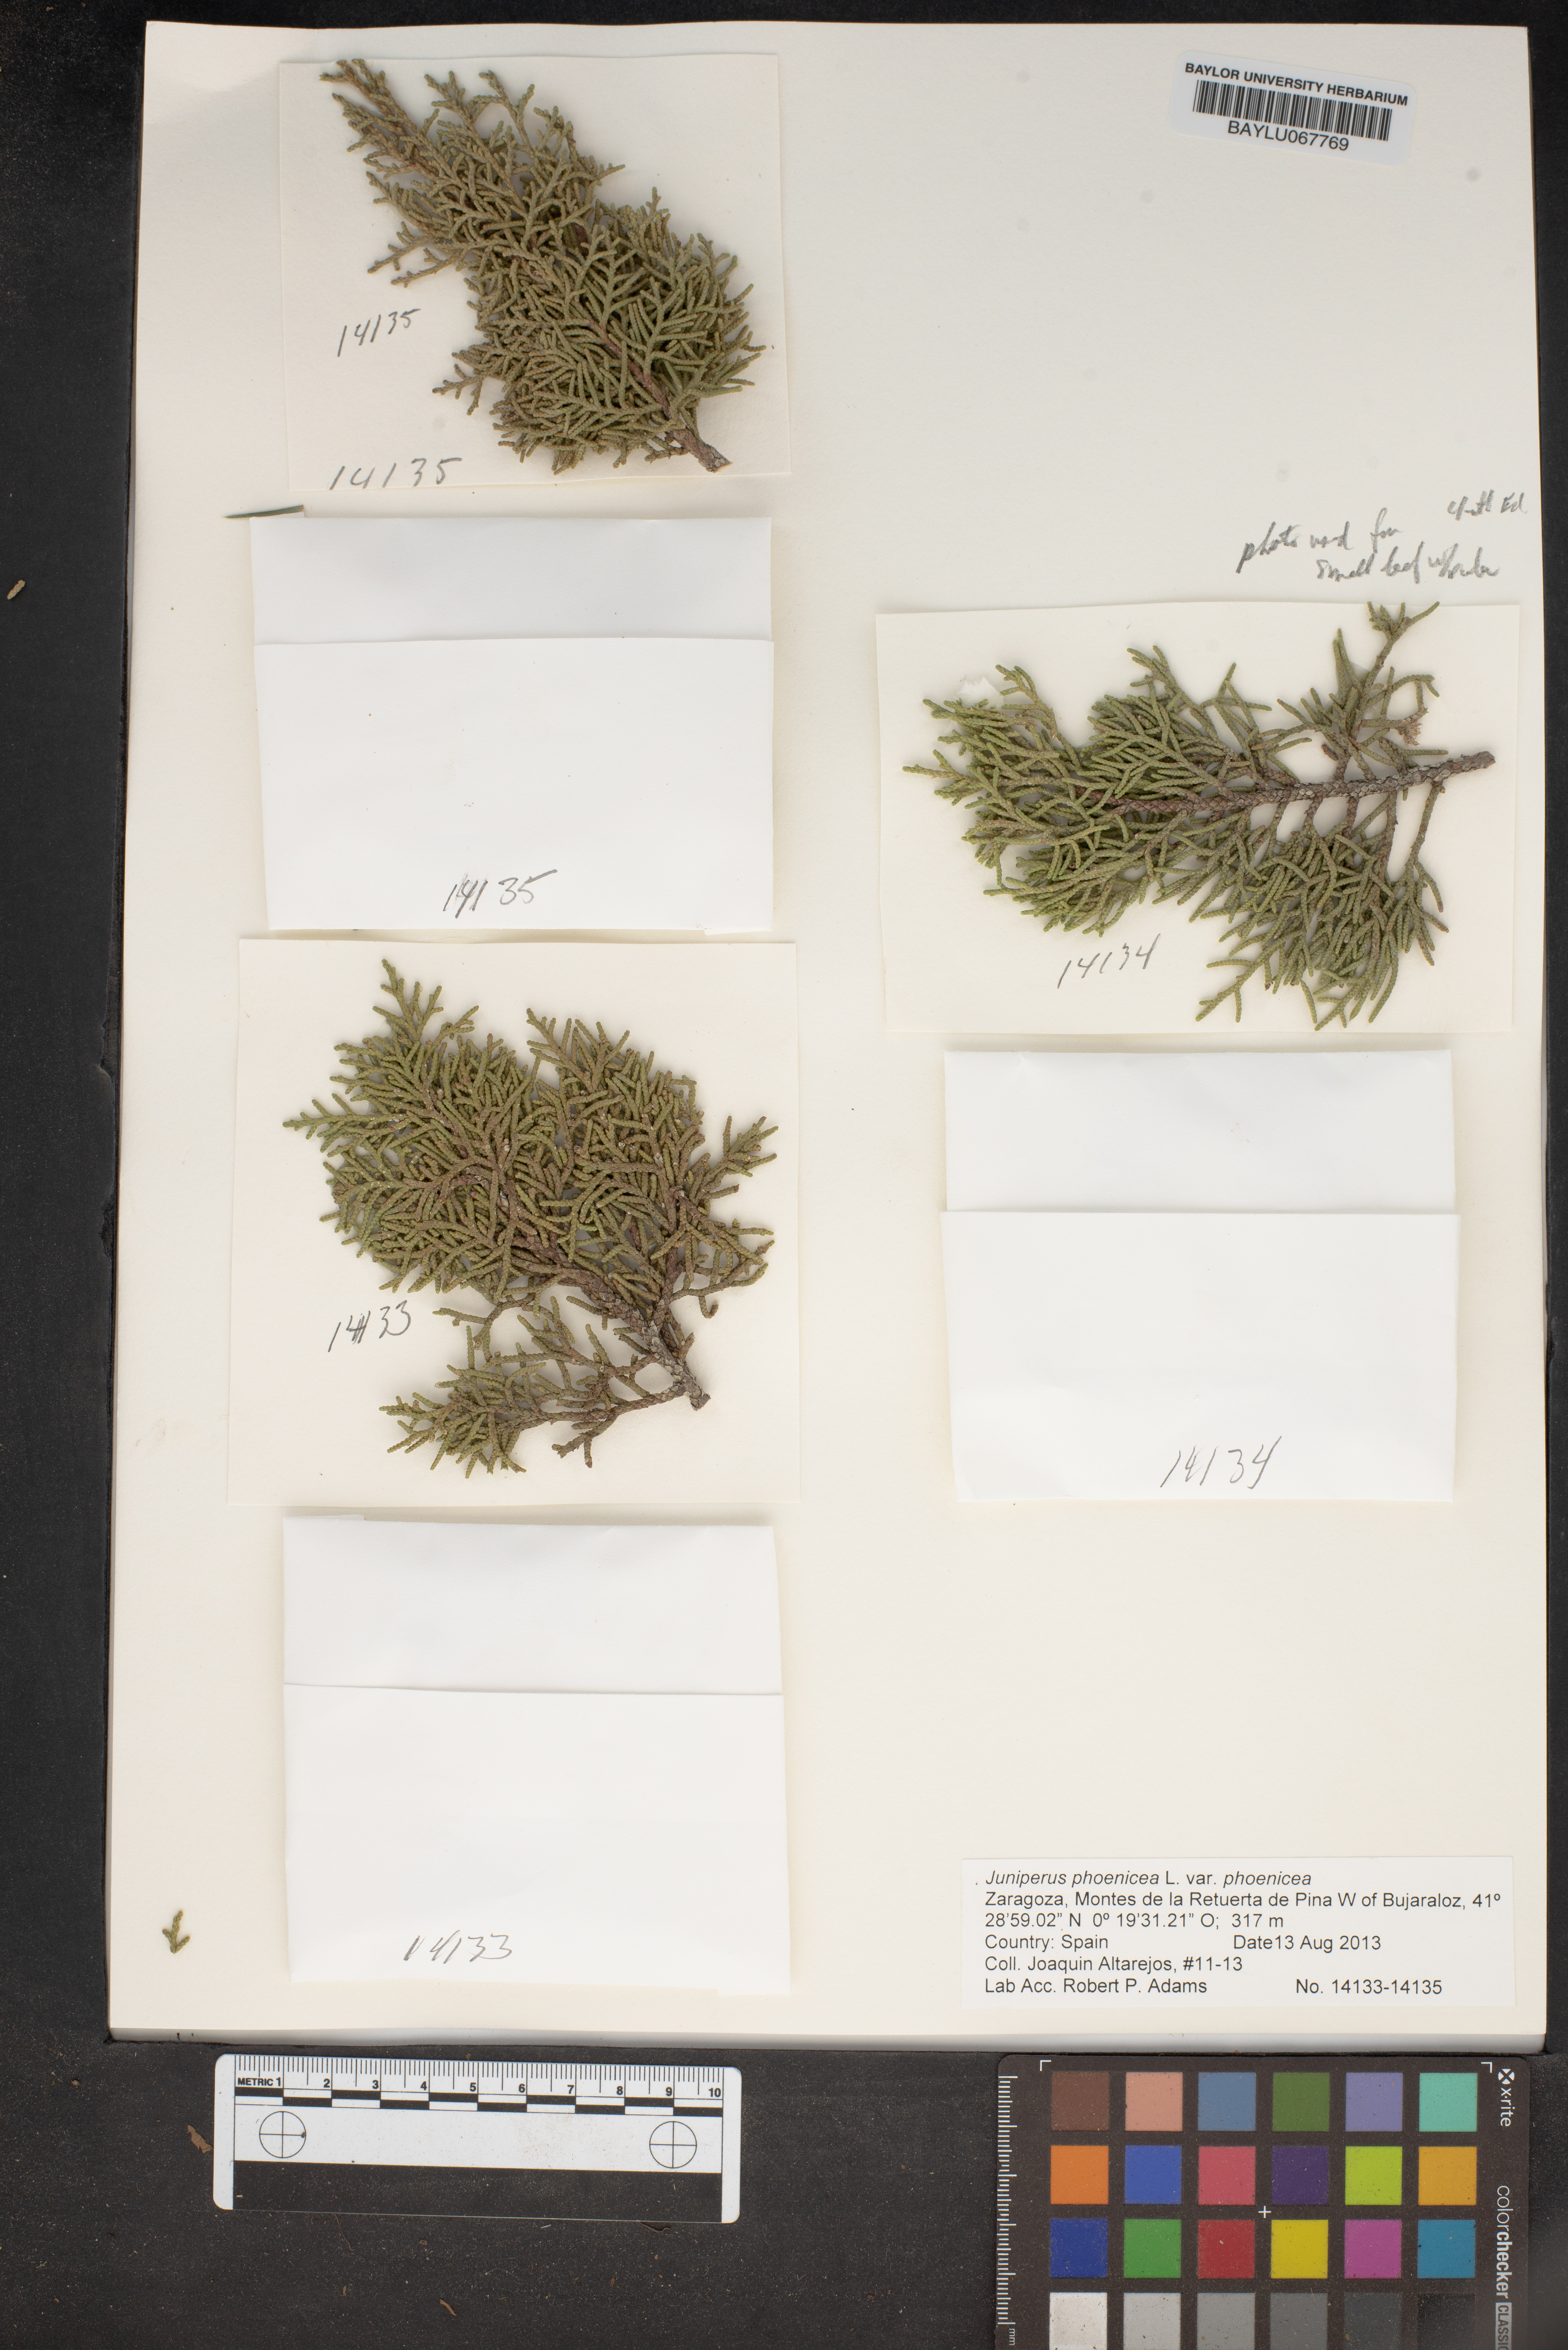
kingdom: Plantae
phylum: Tracheophyta
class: Pinopsida
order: Pinales
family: Cupressaceae
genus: Juniperus
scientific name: Juniperus phoenicea
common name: Phoenician juniper
